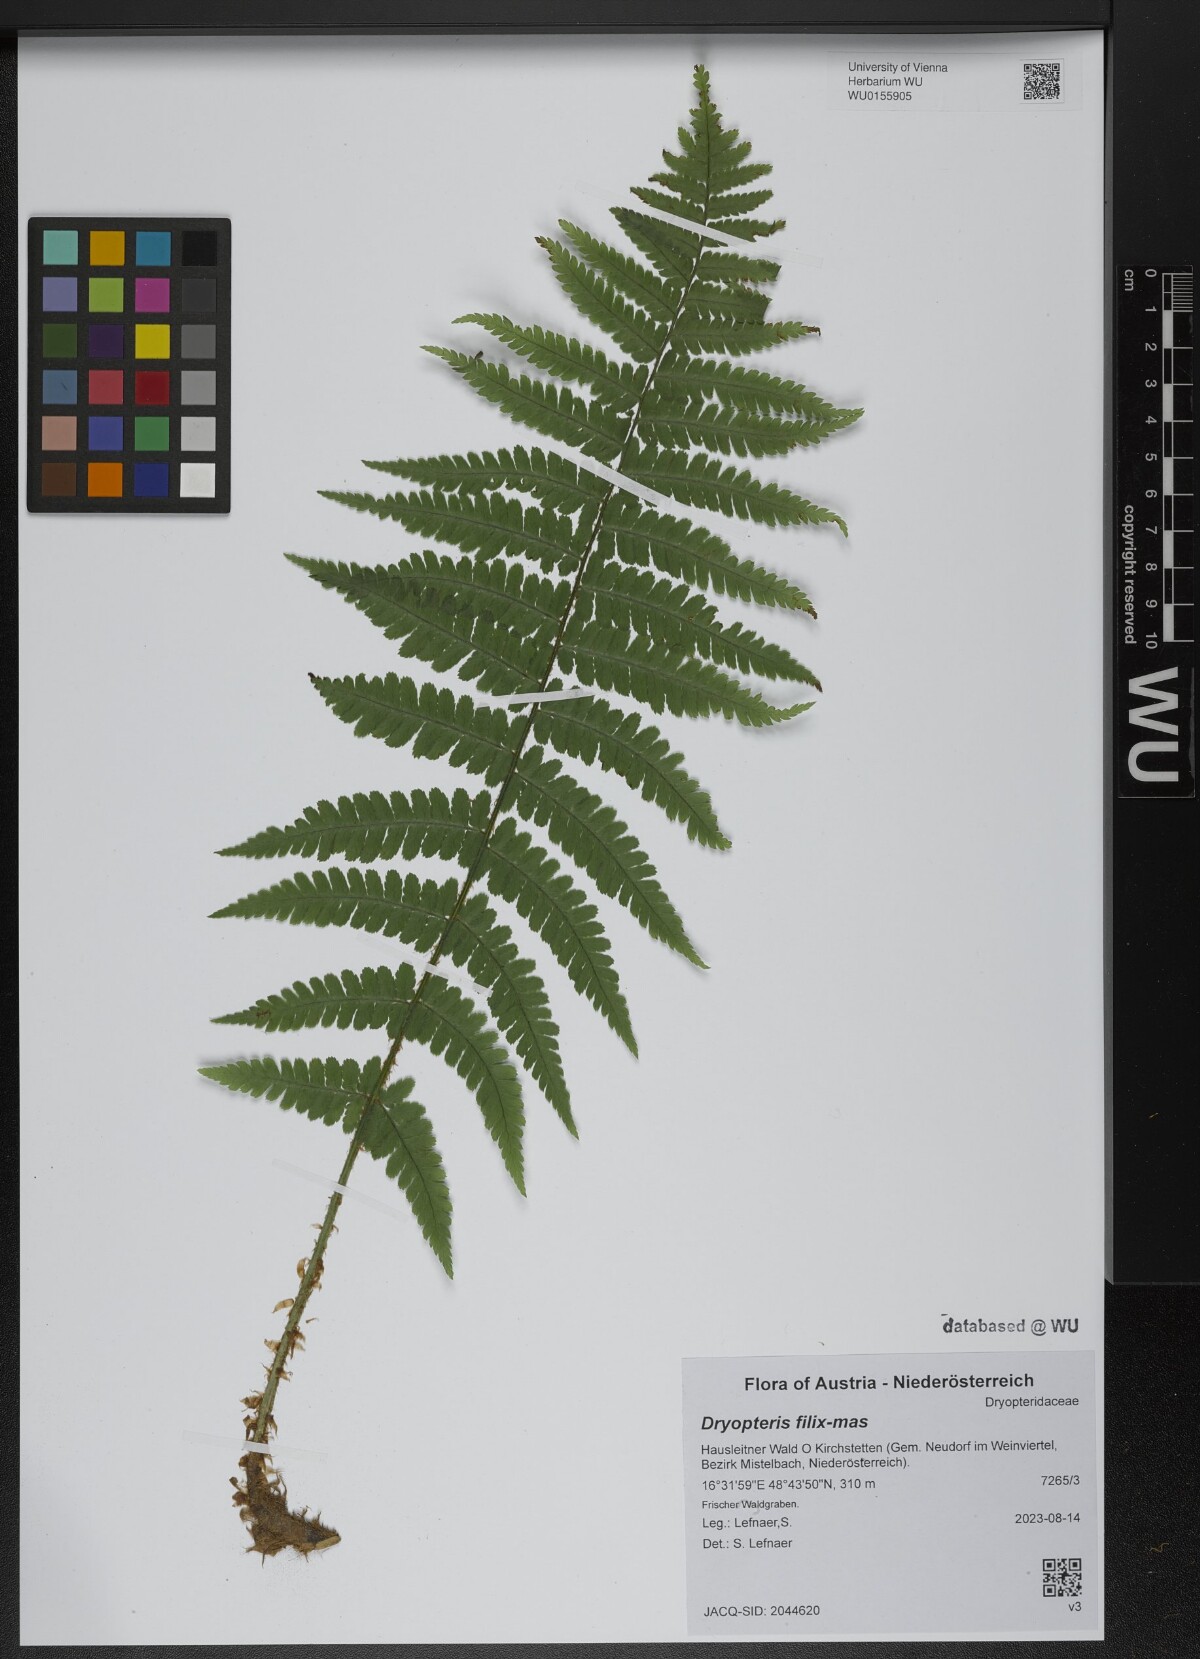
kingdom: Plantae
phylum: Tracheophyta
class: Polypodiopsida
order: Polypodiales
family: Dryopteridaceae
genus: Dryopteris
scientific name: Dryopteris filix-mas
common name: Male fern
